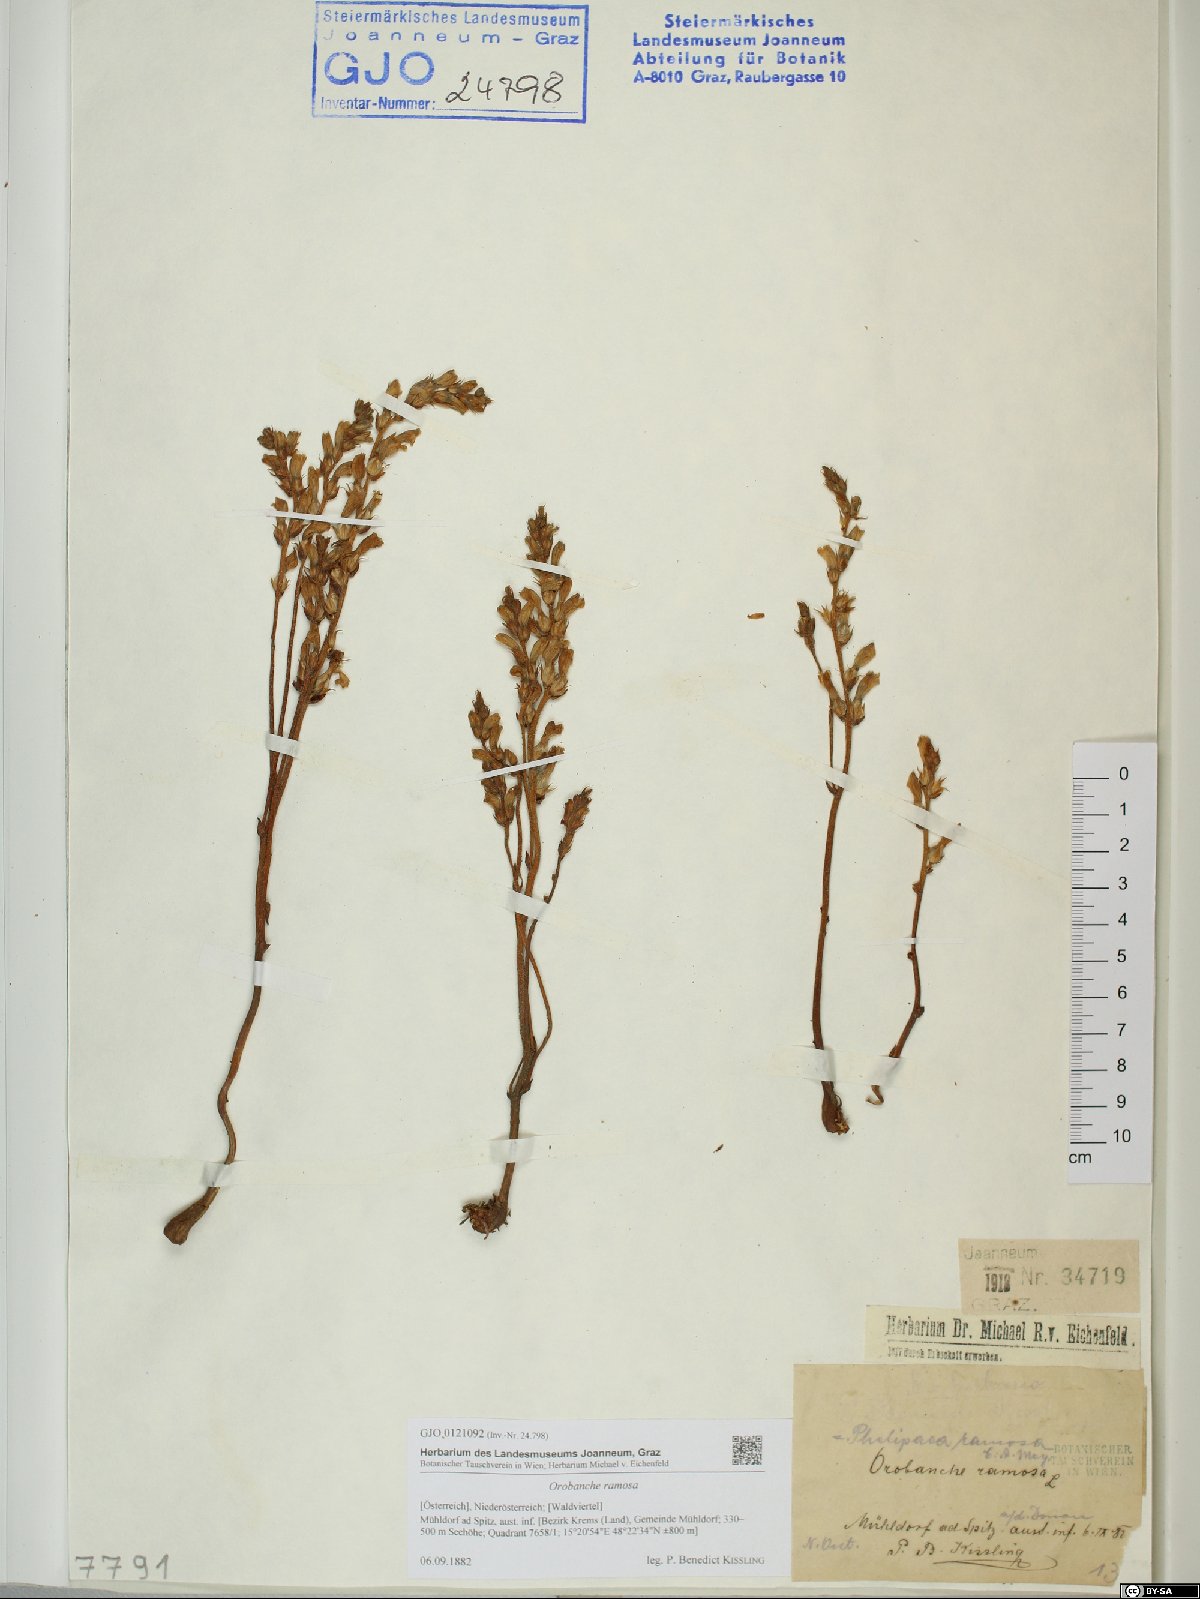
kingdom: Plantae
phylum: Tracheophyta
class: Magnoliopsida
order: Lamiales
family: Orobanchaceae
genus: Phelipanche
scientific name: Phelipanche ramosa
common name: Branched broomrape
